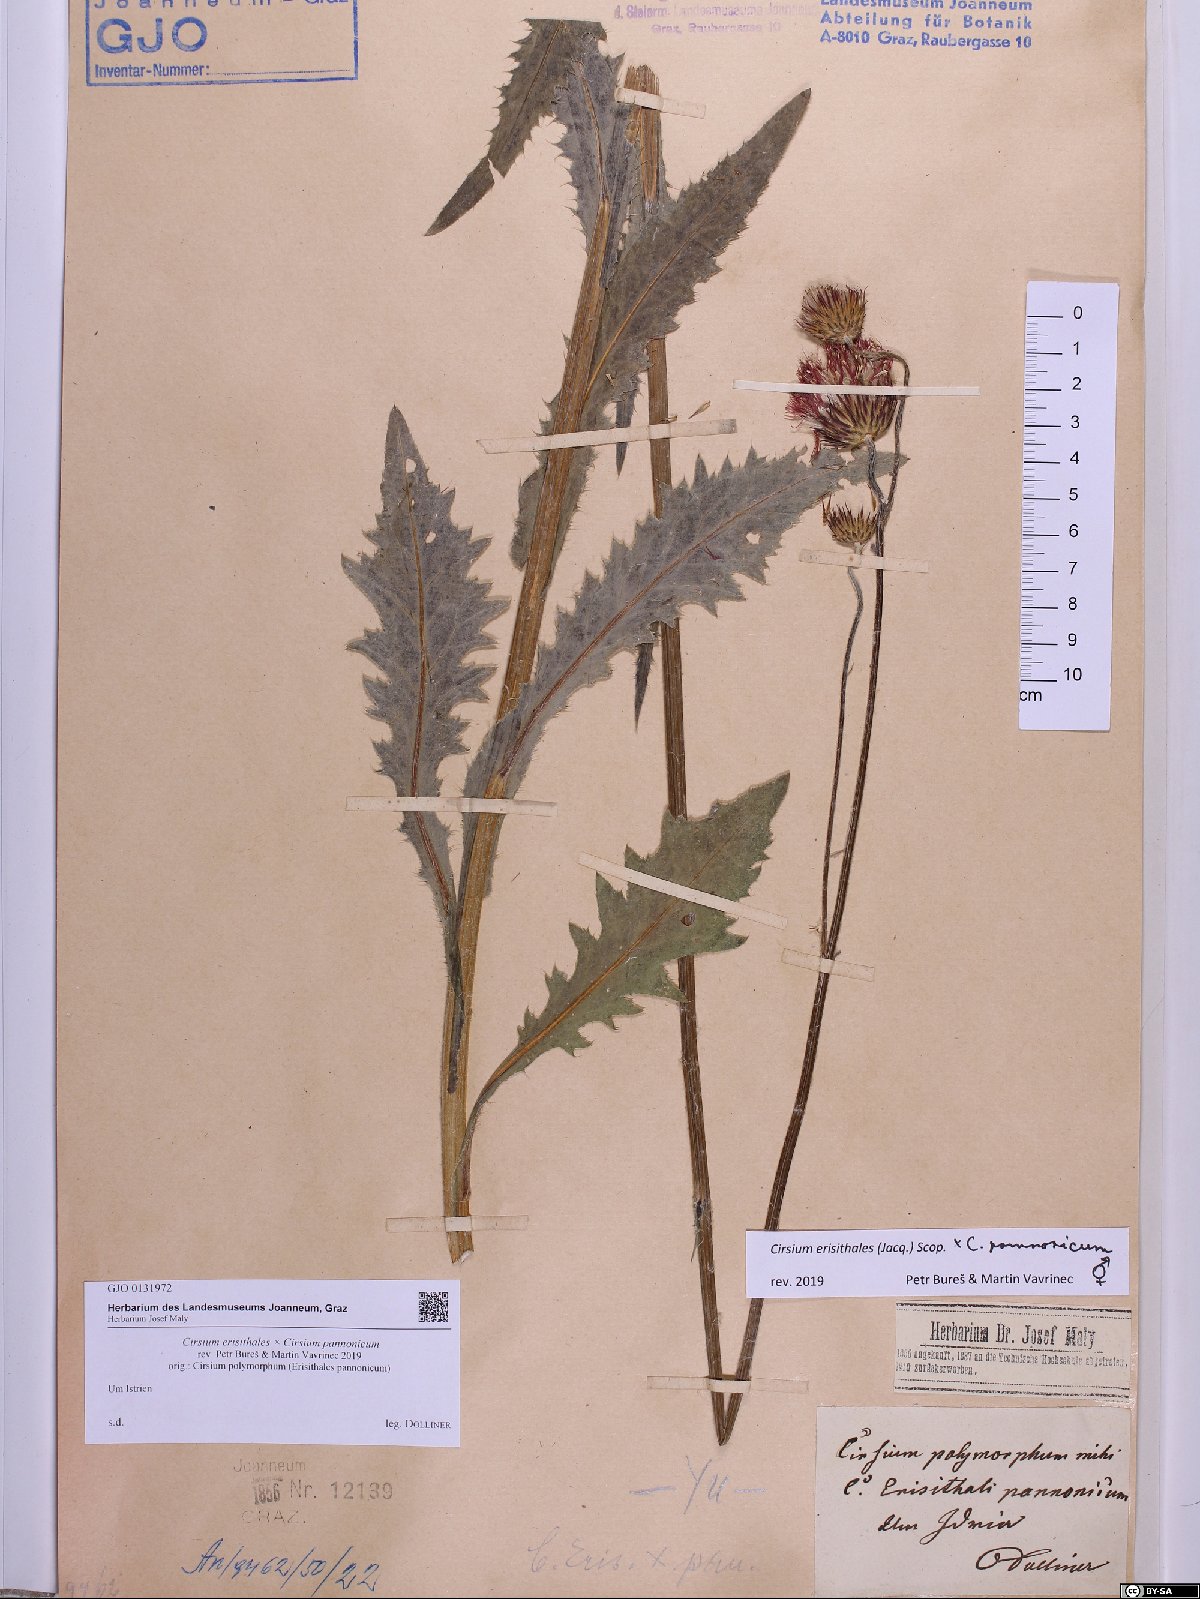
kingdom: Plantae
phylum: Tracheophyta
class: Magnoliopsida
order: Asterales
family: Asteraceae
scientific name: Asteraceae
